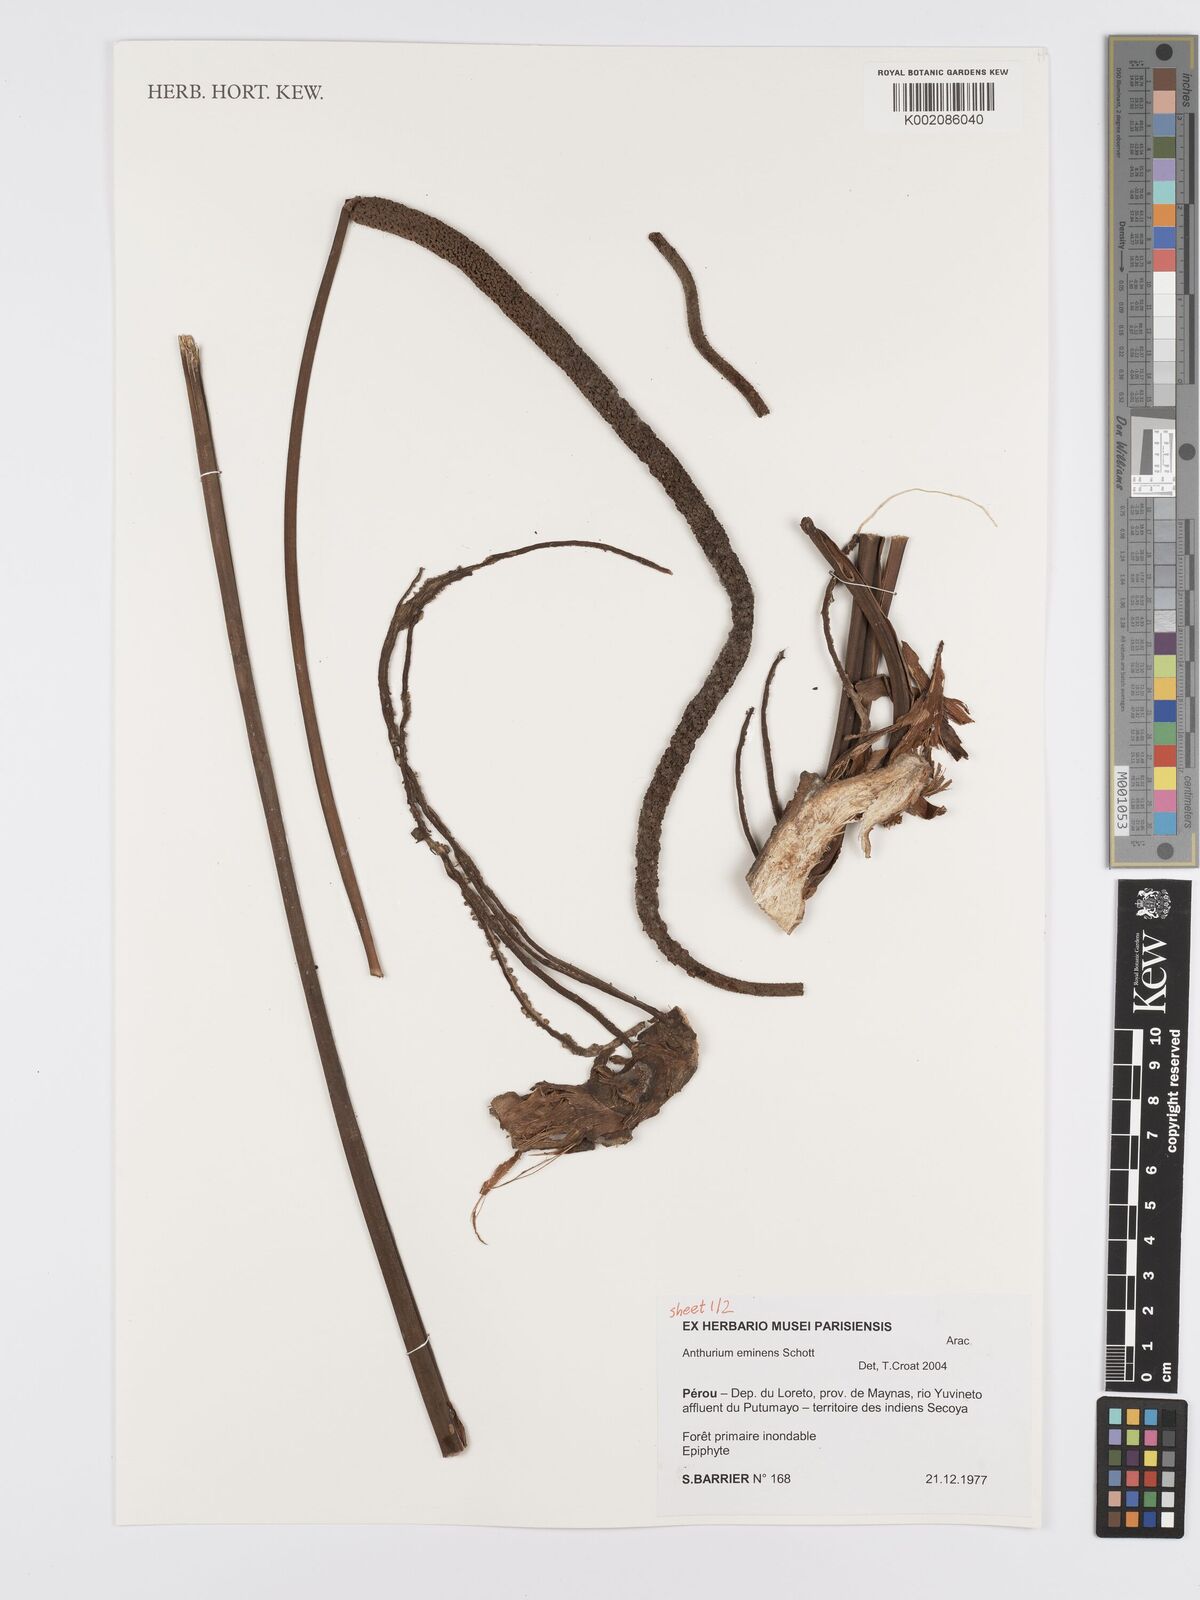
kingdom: Plantae
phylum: Tracheophyta
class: Liliopsida
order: Alismatales
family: Araceae
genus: Anthurium
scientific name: Anthurium eminens
